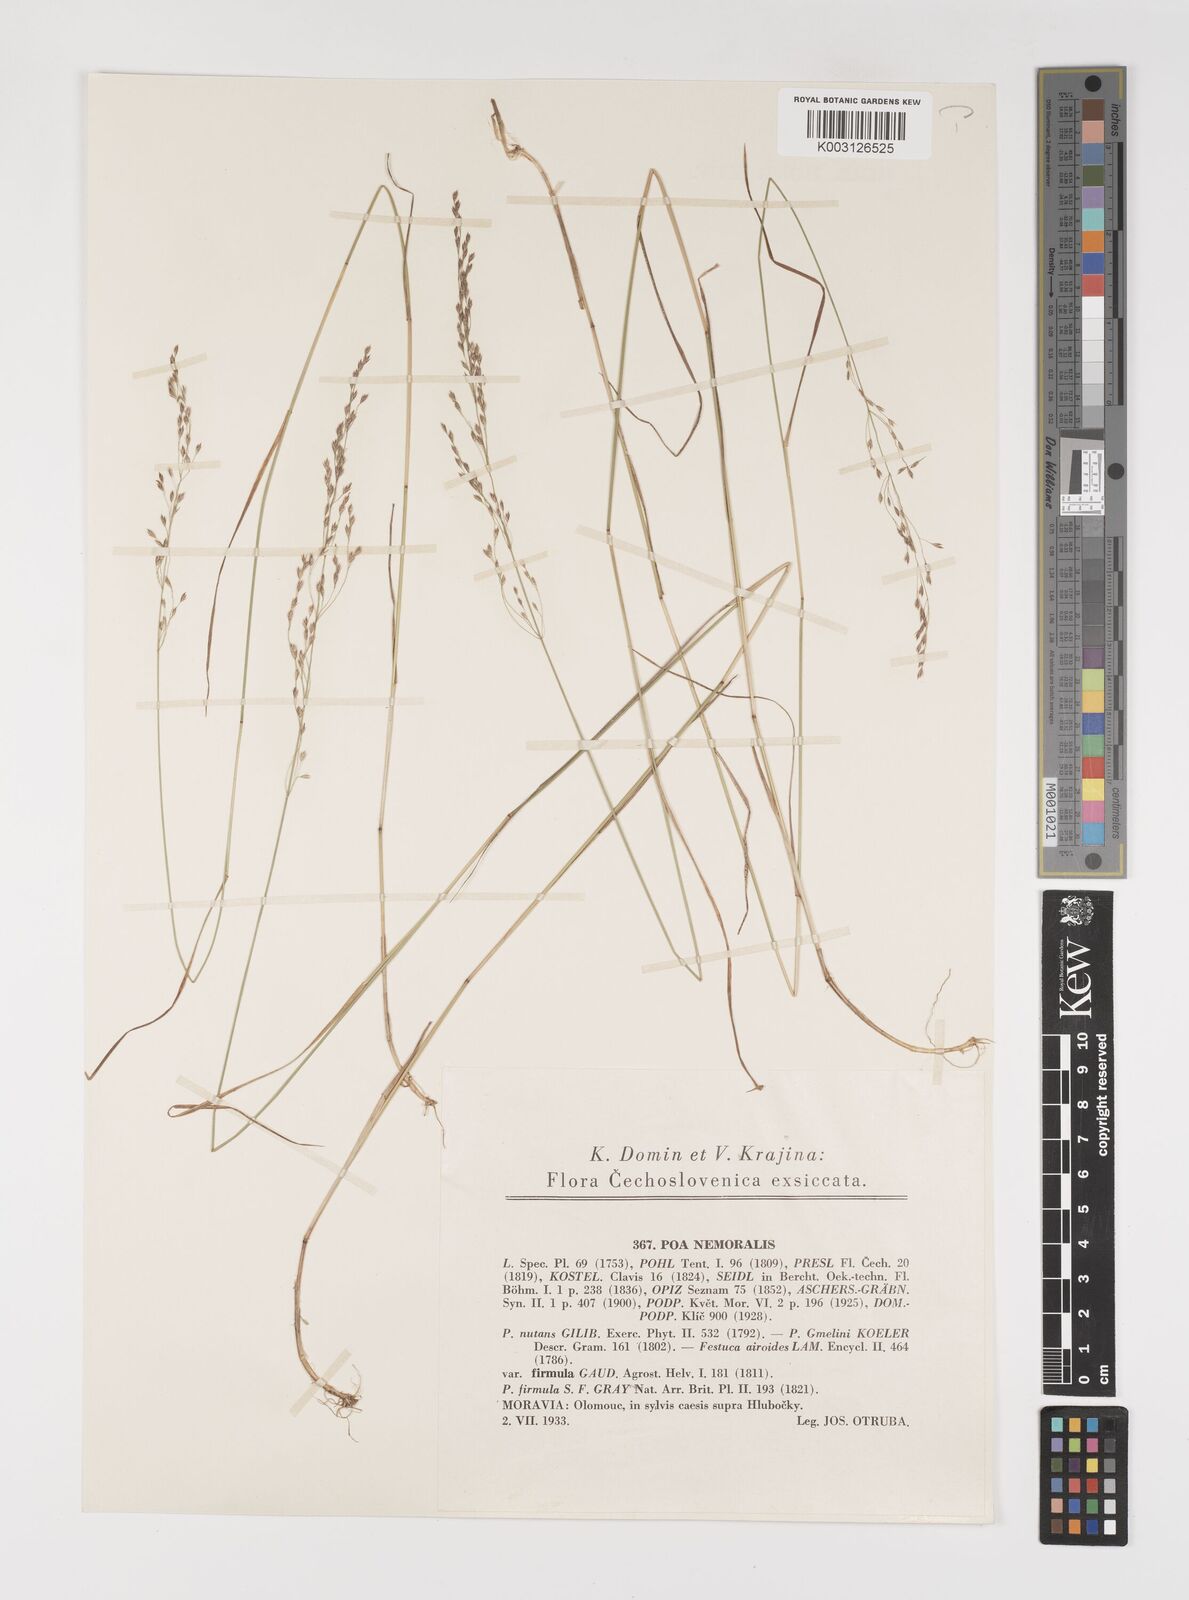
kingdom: Plantae
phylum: Tracheophyta
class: Liliopsida
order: Poales
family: Poaceae
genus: Poa
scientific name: Poa nemoralis
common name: Wood bluegrass
